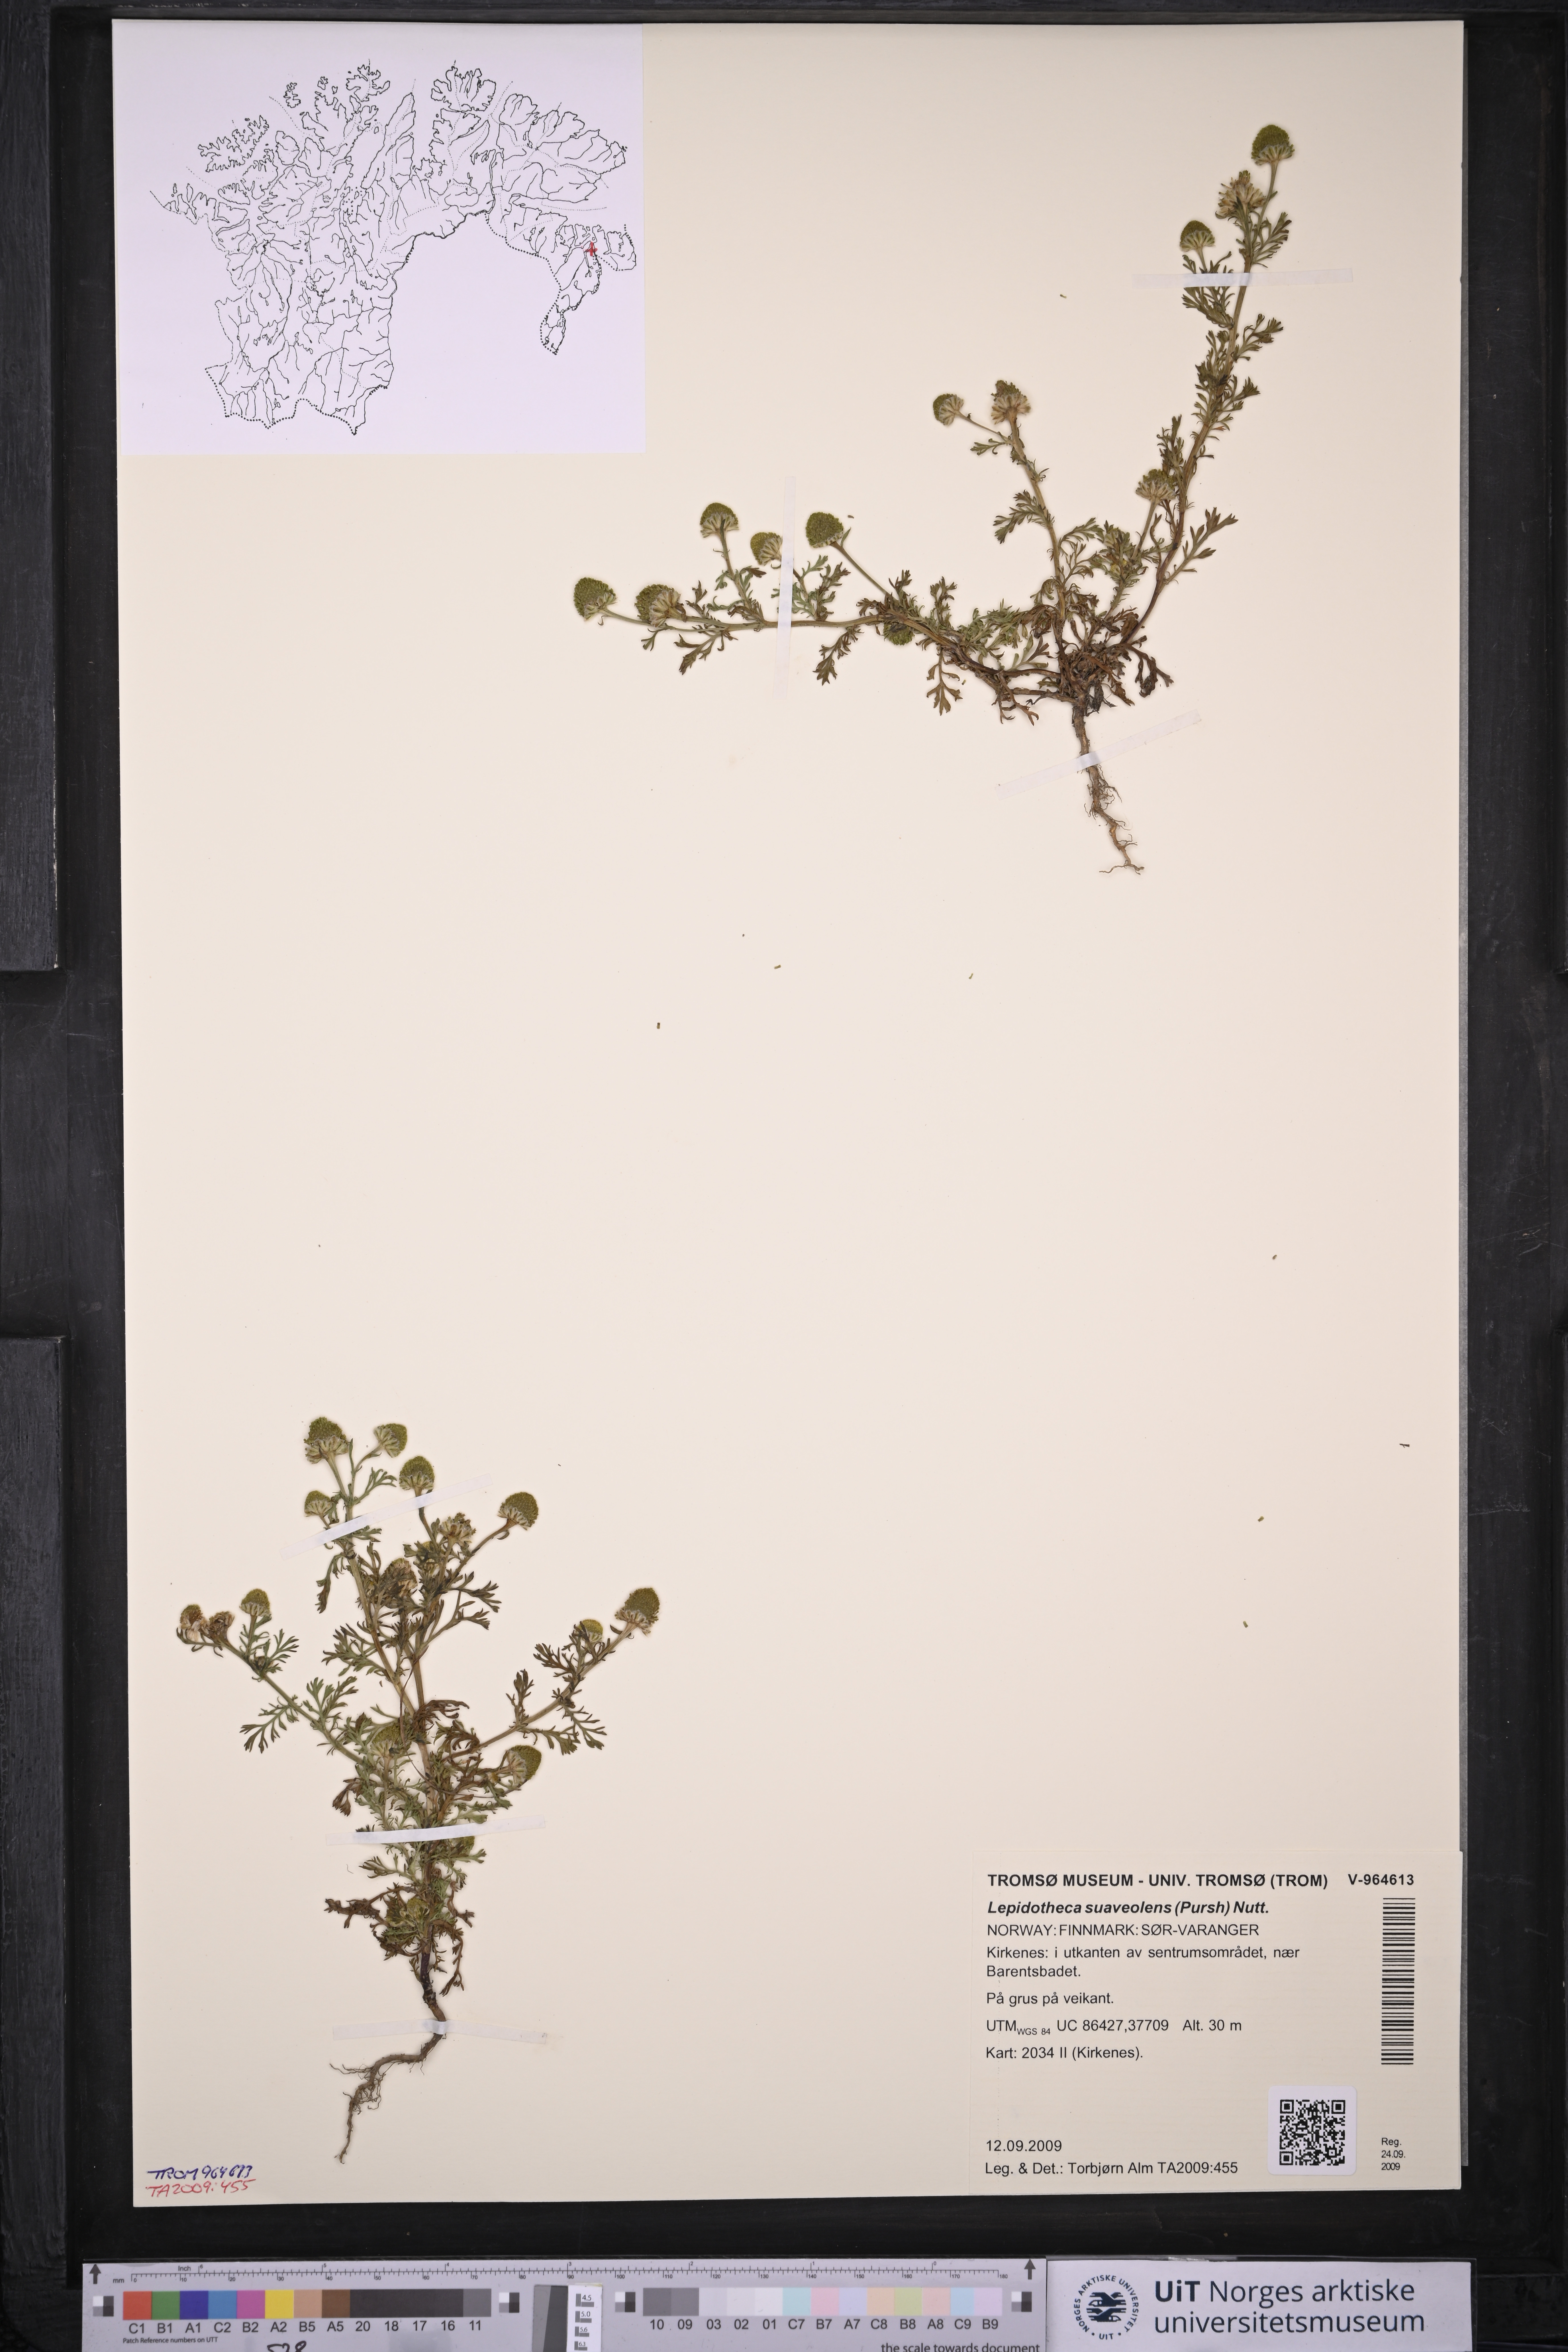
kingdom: Plantae
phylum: Tracheophyta
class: Magnoliopsida
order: Asterales
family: Asteraceae
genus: Matricaria
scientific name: Matricaria discoidea
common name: Disc mayweed
